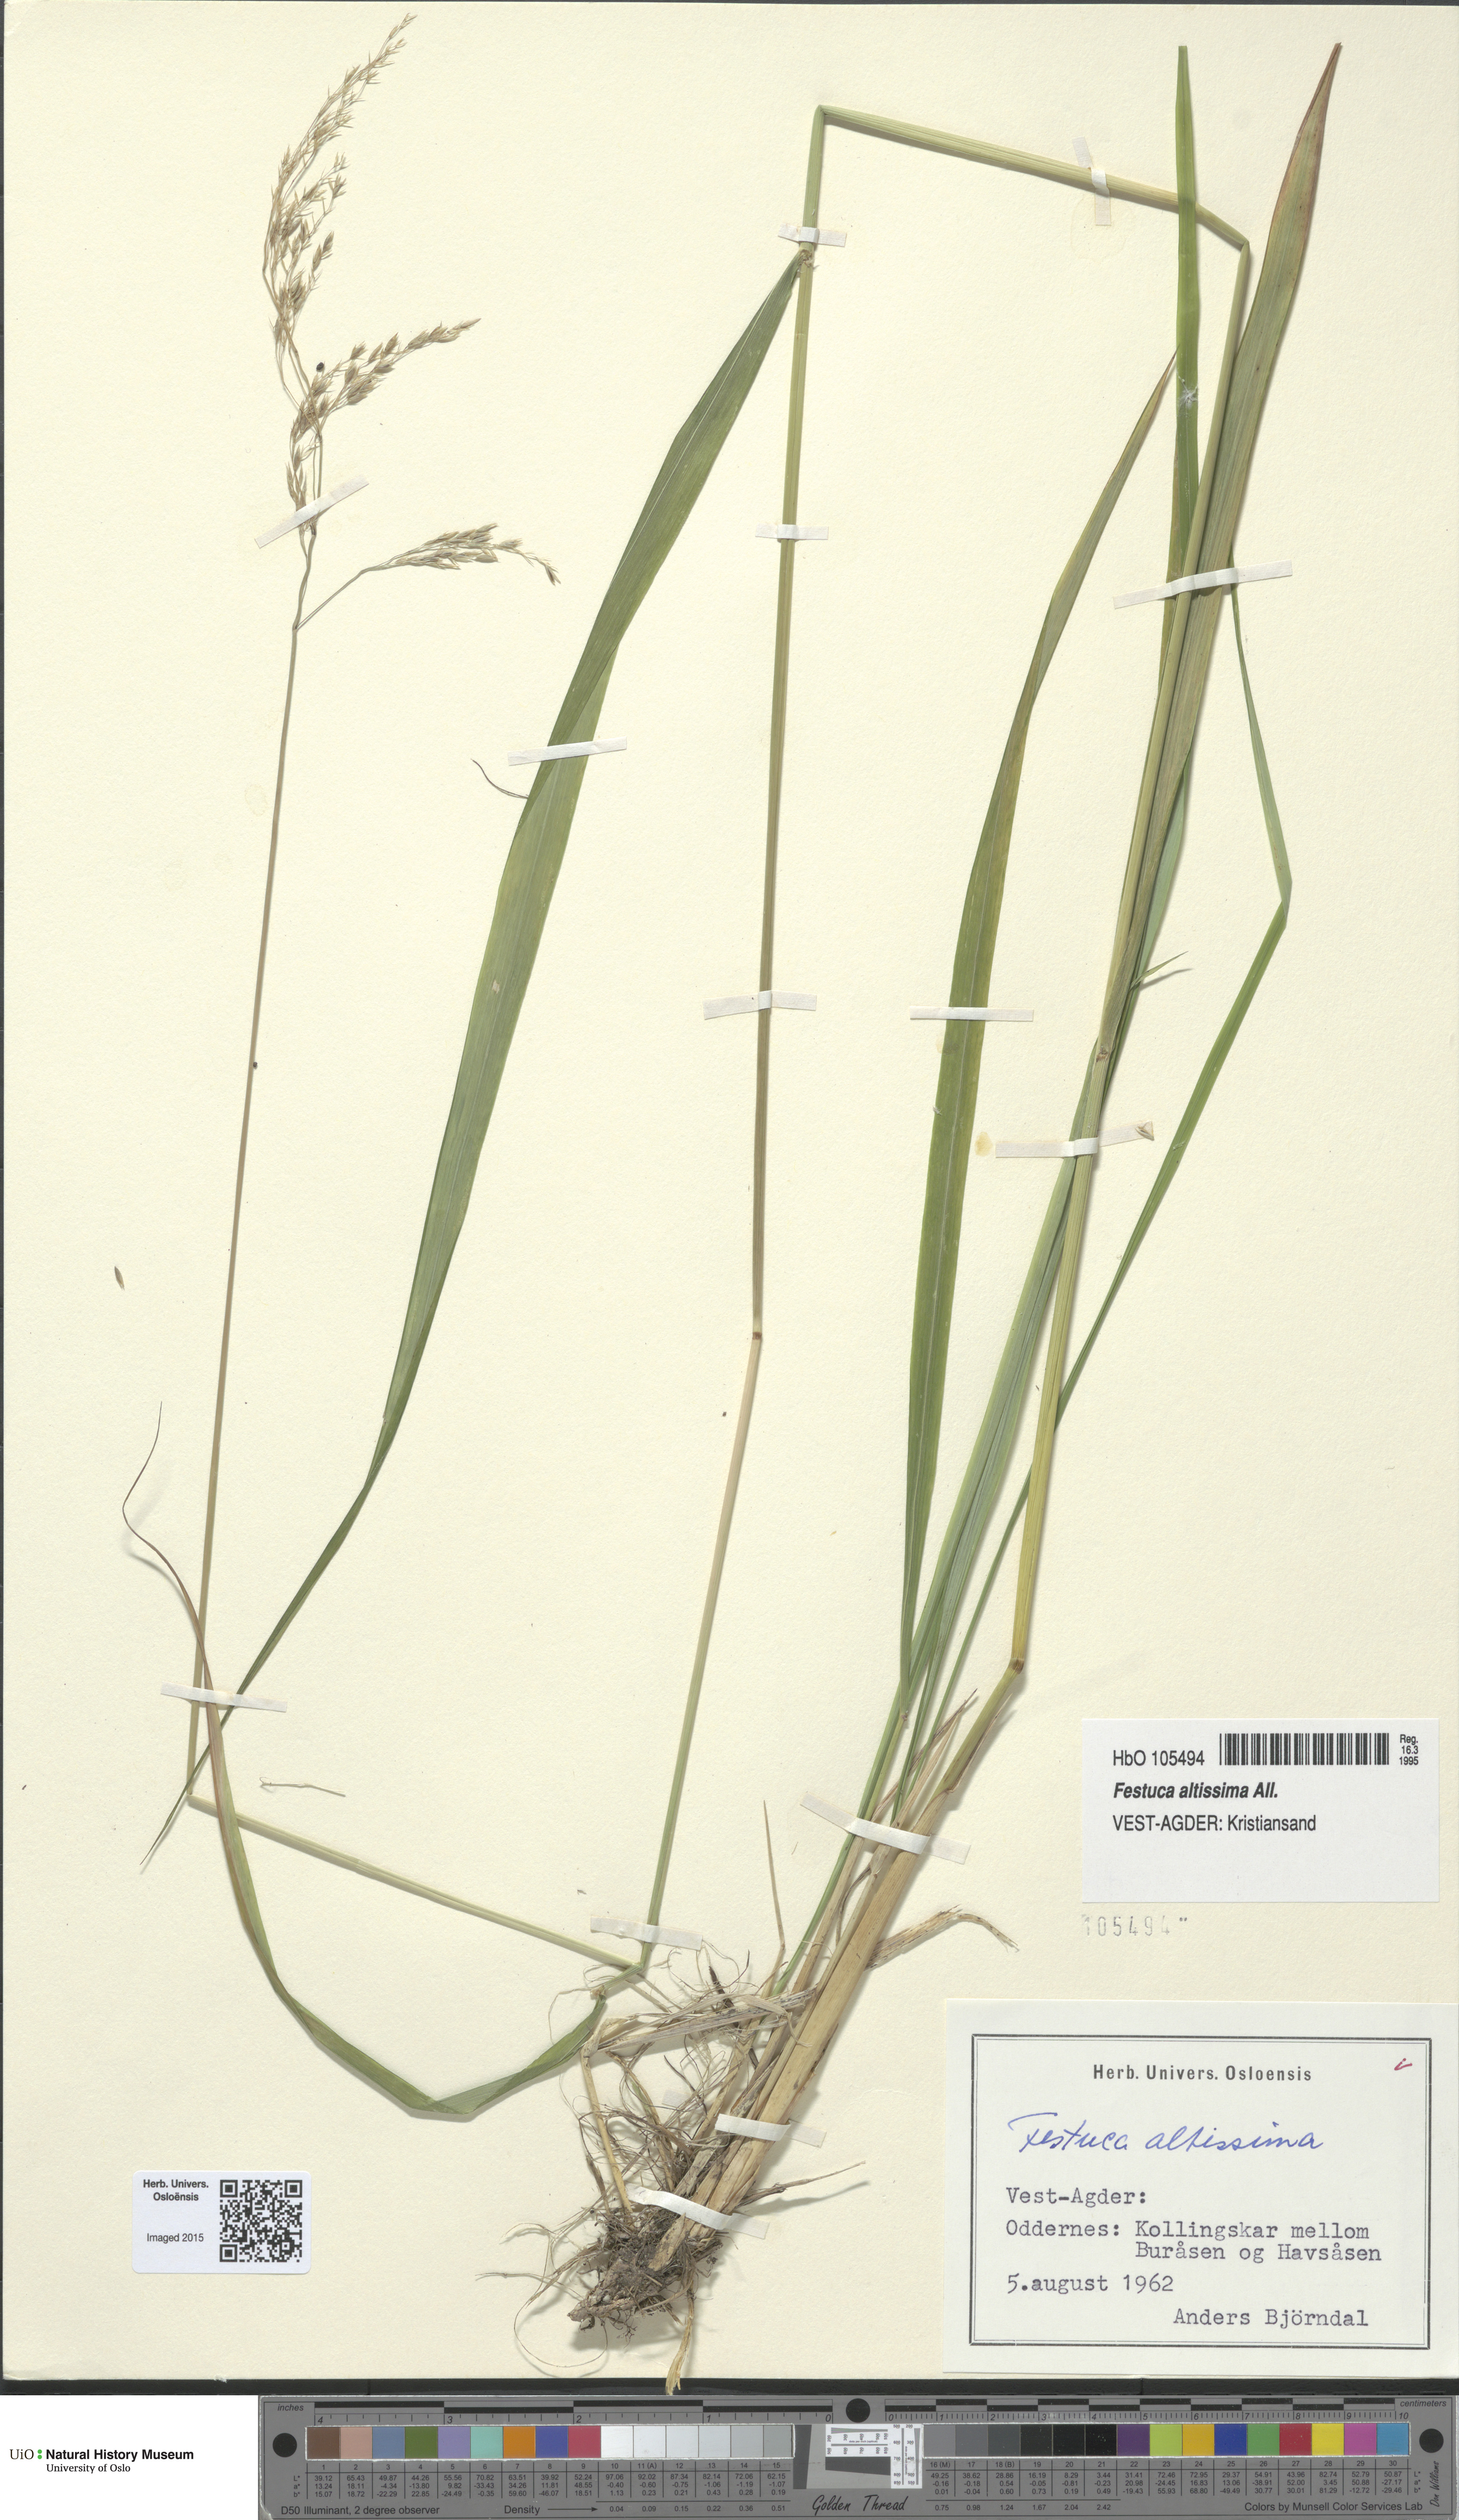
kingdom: Plantae
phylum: Tracheophyta
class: Liliopsida
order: Poales
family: Poaceae
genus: Festuca
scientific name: Festuca altissima
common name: Wood fescue
